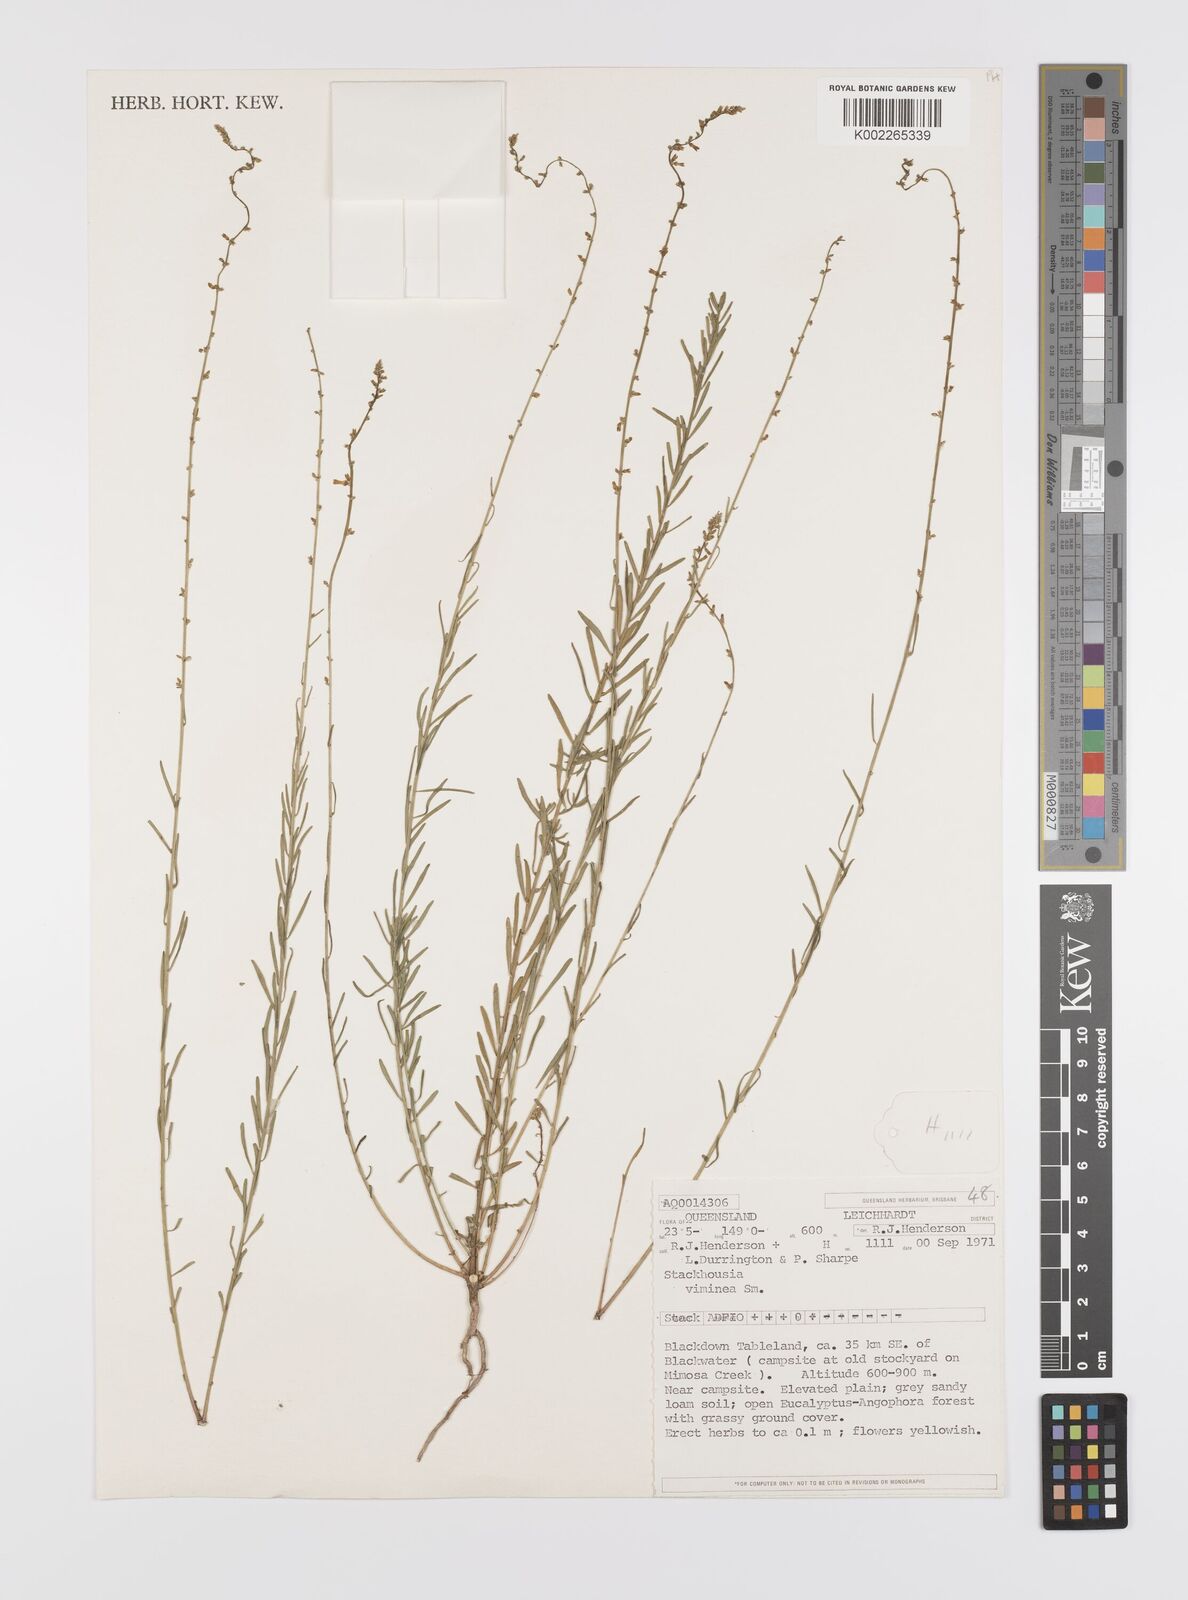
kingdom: Plantae
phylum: Tracheophyta
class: Magnoliopsida
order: Celastrales
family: Celastraceae
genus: Stackhousia
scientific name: Stackhousia viminea
